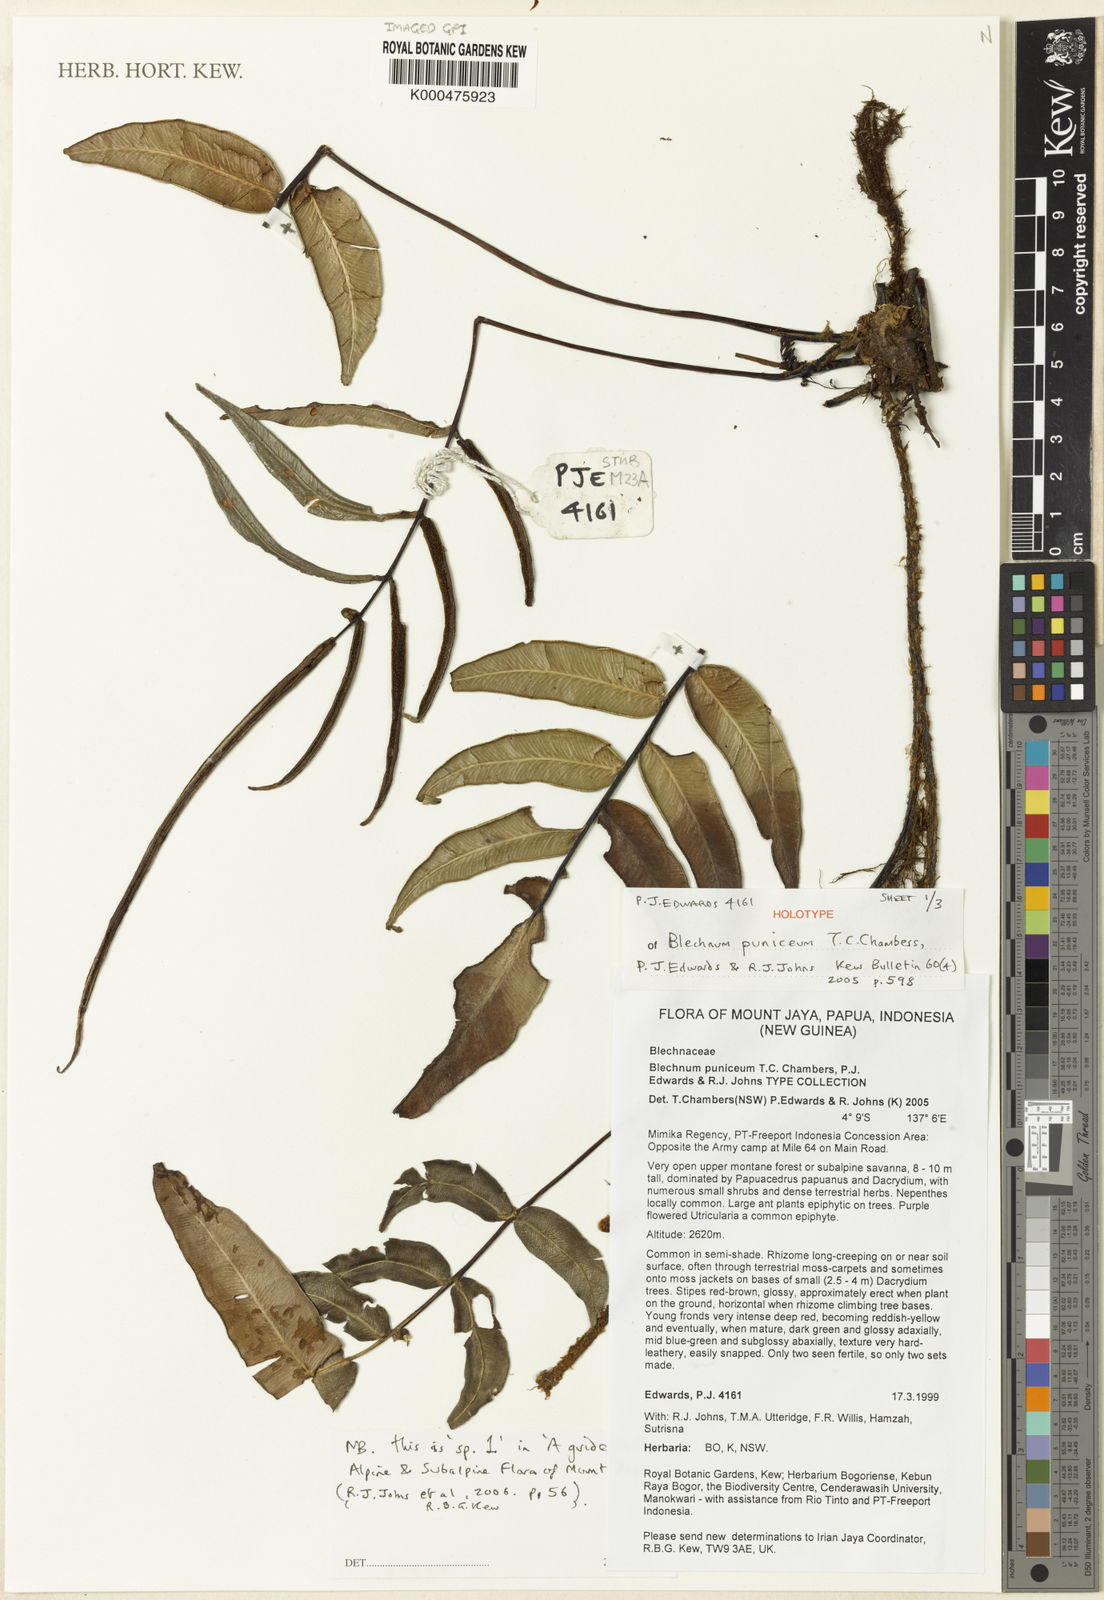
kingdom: Plantae
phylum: Tracheophyta
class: Polypodiopsida
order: Polypodiales
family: Blechnaceae
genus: Parablechnum
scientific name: Parablechnum puniceum
